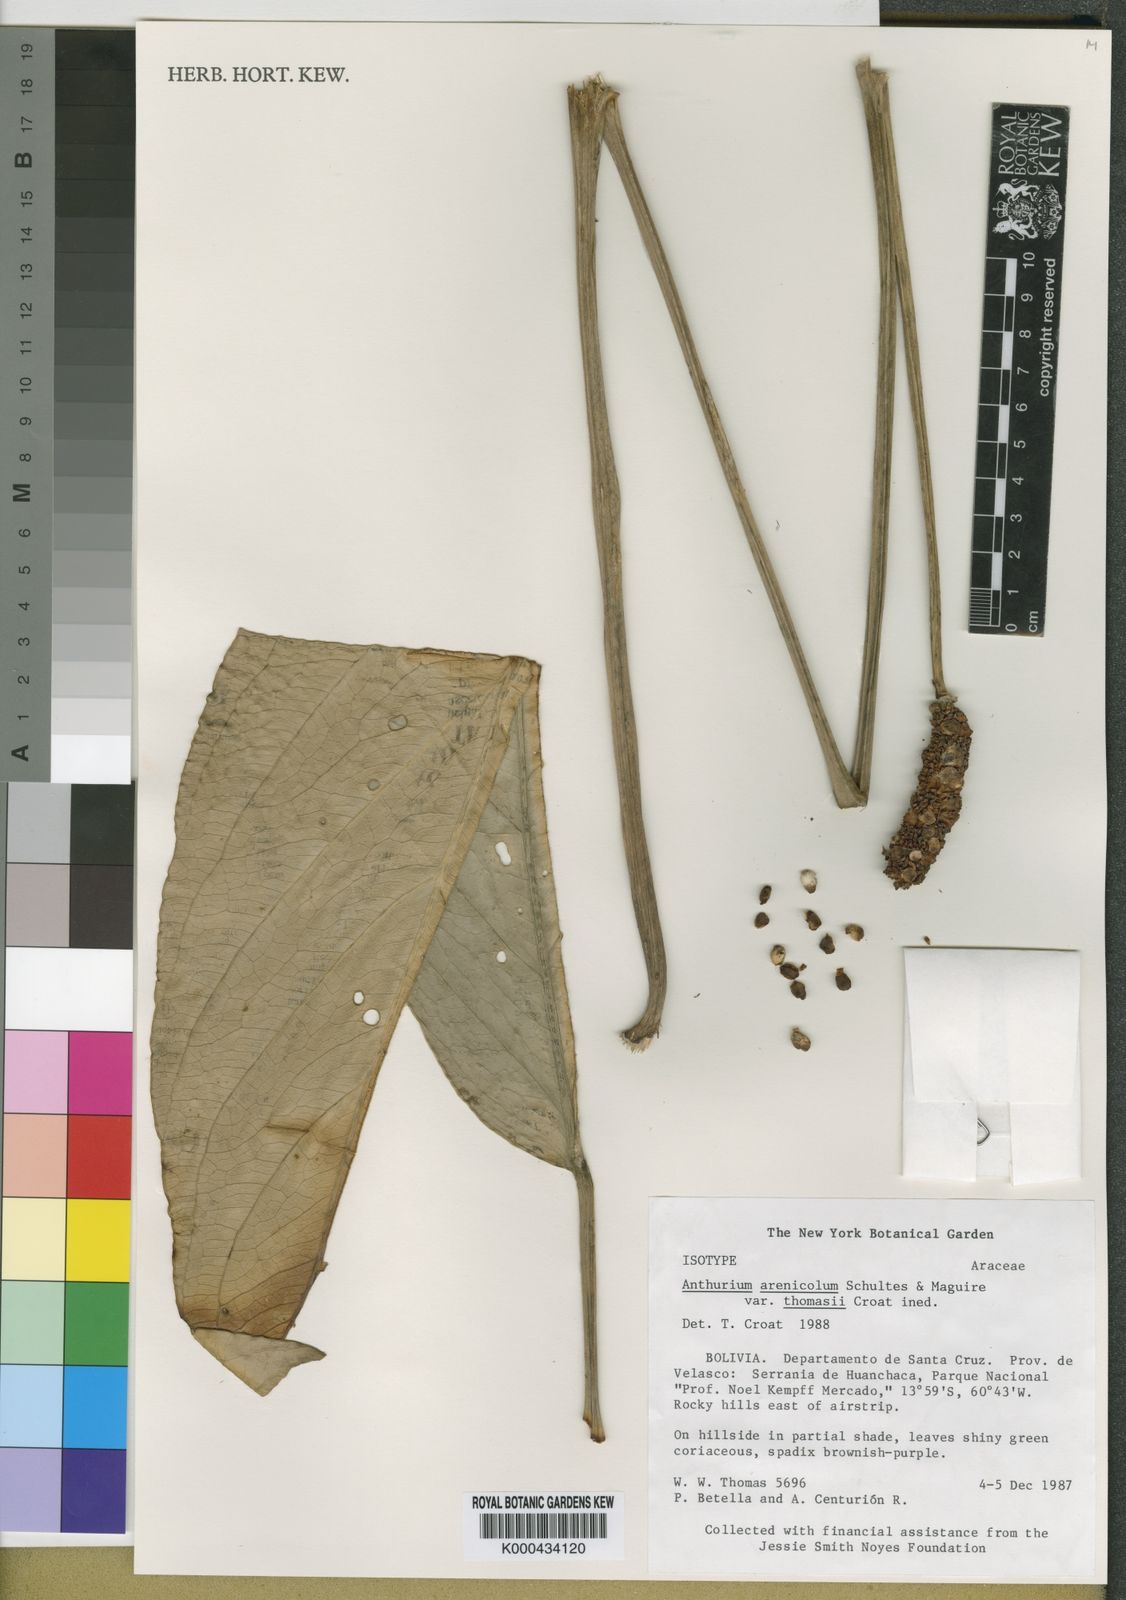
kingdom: Plantae
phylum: Tracheophyta
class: Liliopsida
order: Alismatales
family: Araceae
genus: Anthurium
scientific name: Anthurium
